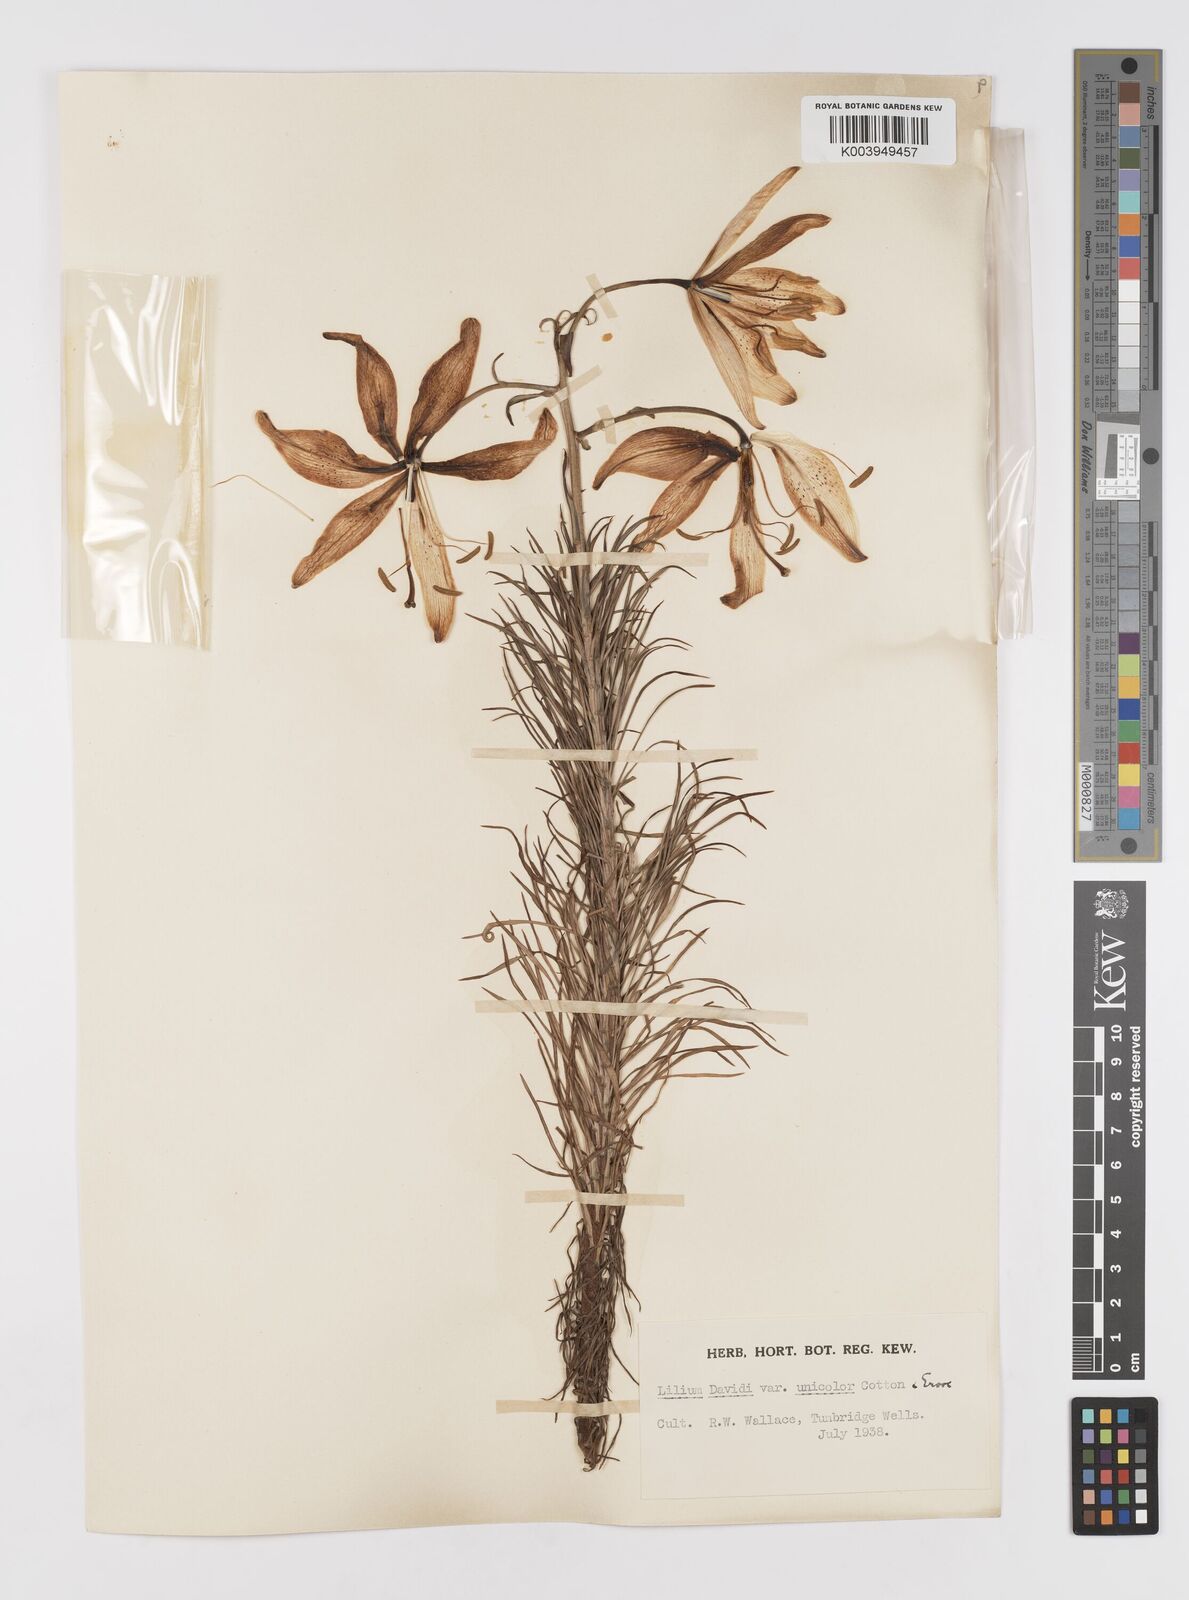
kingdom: Plantae
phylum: Tracheophyta
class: Liliopsida
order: Liliales
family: Liliaceae
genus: Lilium
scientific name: Lilium davidii
